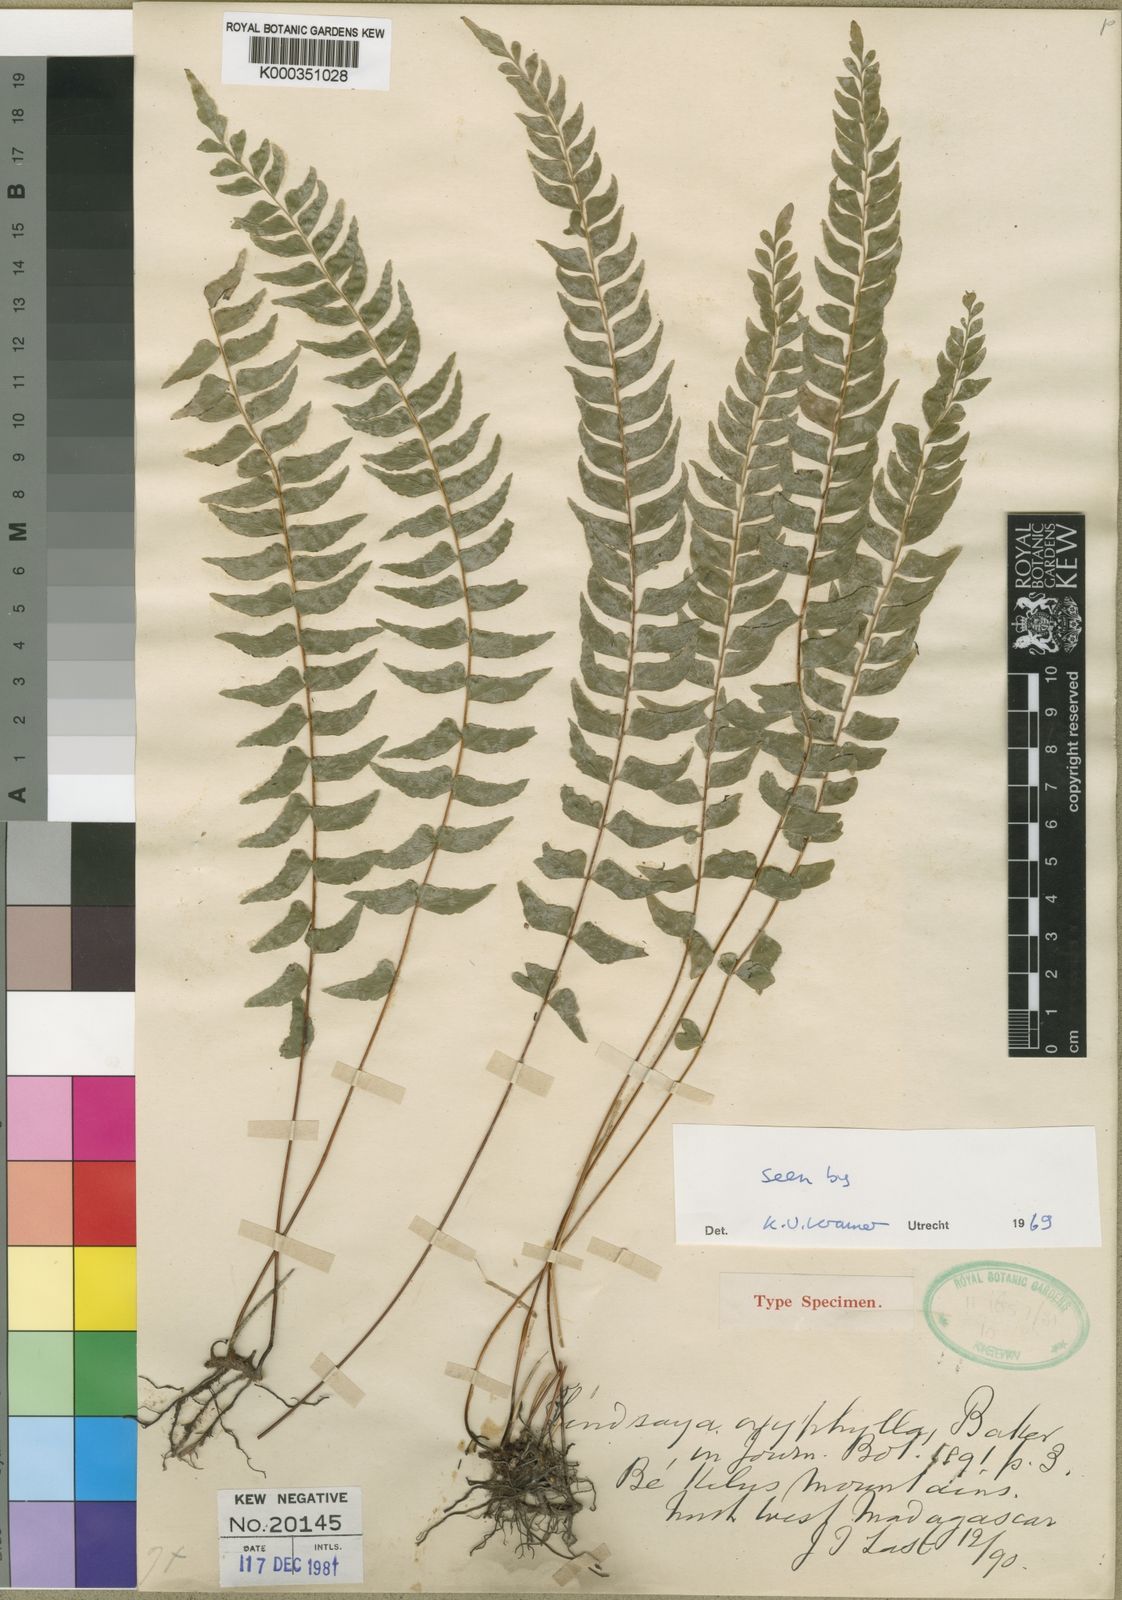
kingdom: Plantae
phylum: Tracheophyta
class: Polypodiopsida
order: Polypodiales
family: Lindsaeaceae
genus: Lindsaea
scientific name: Lindsaea oxyphylla
